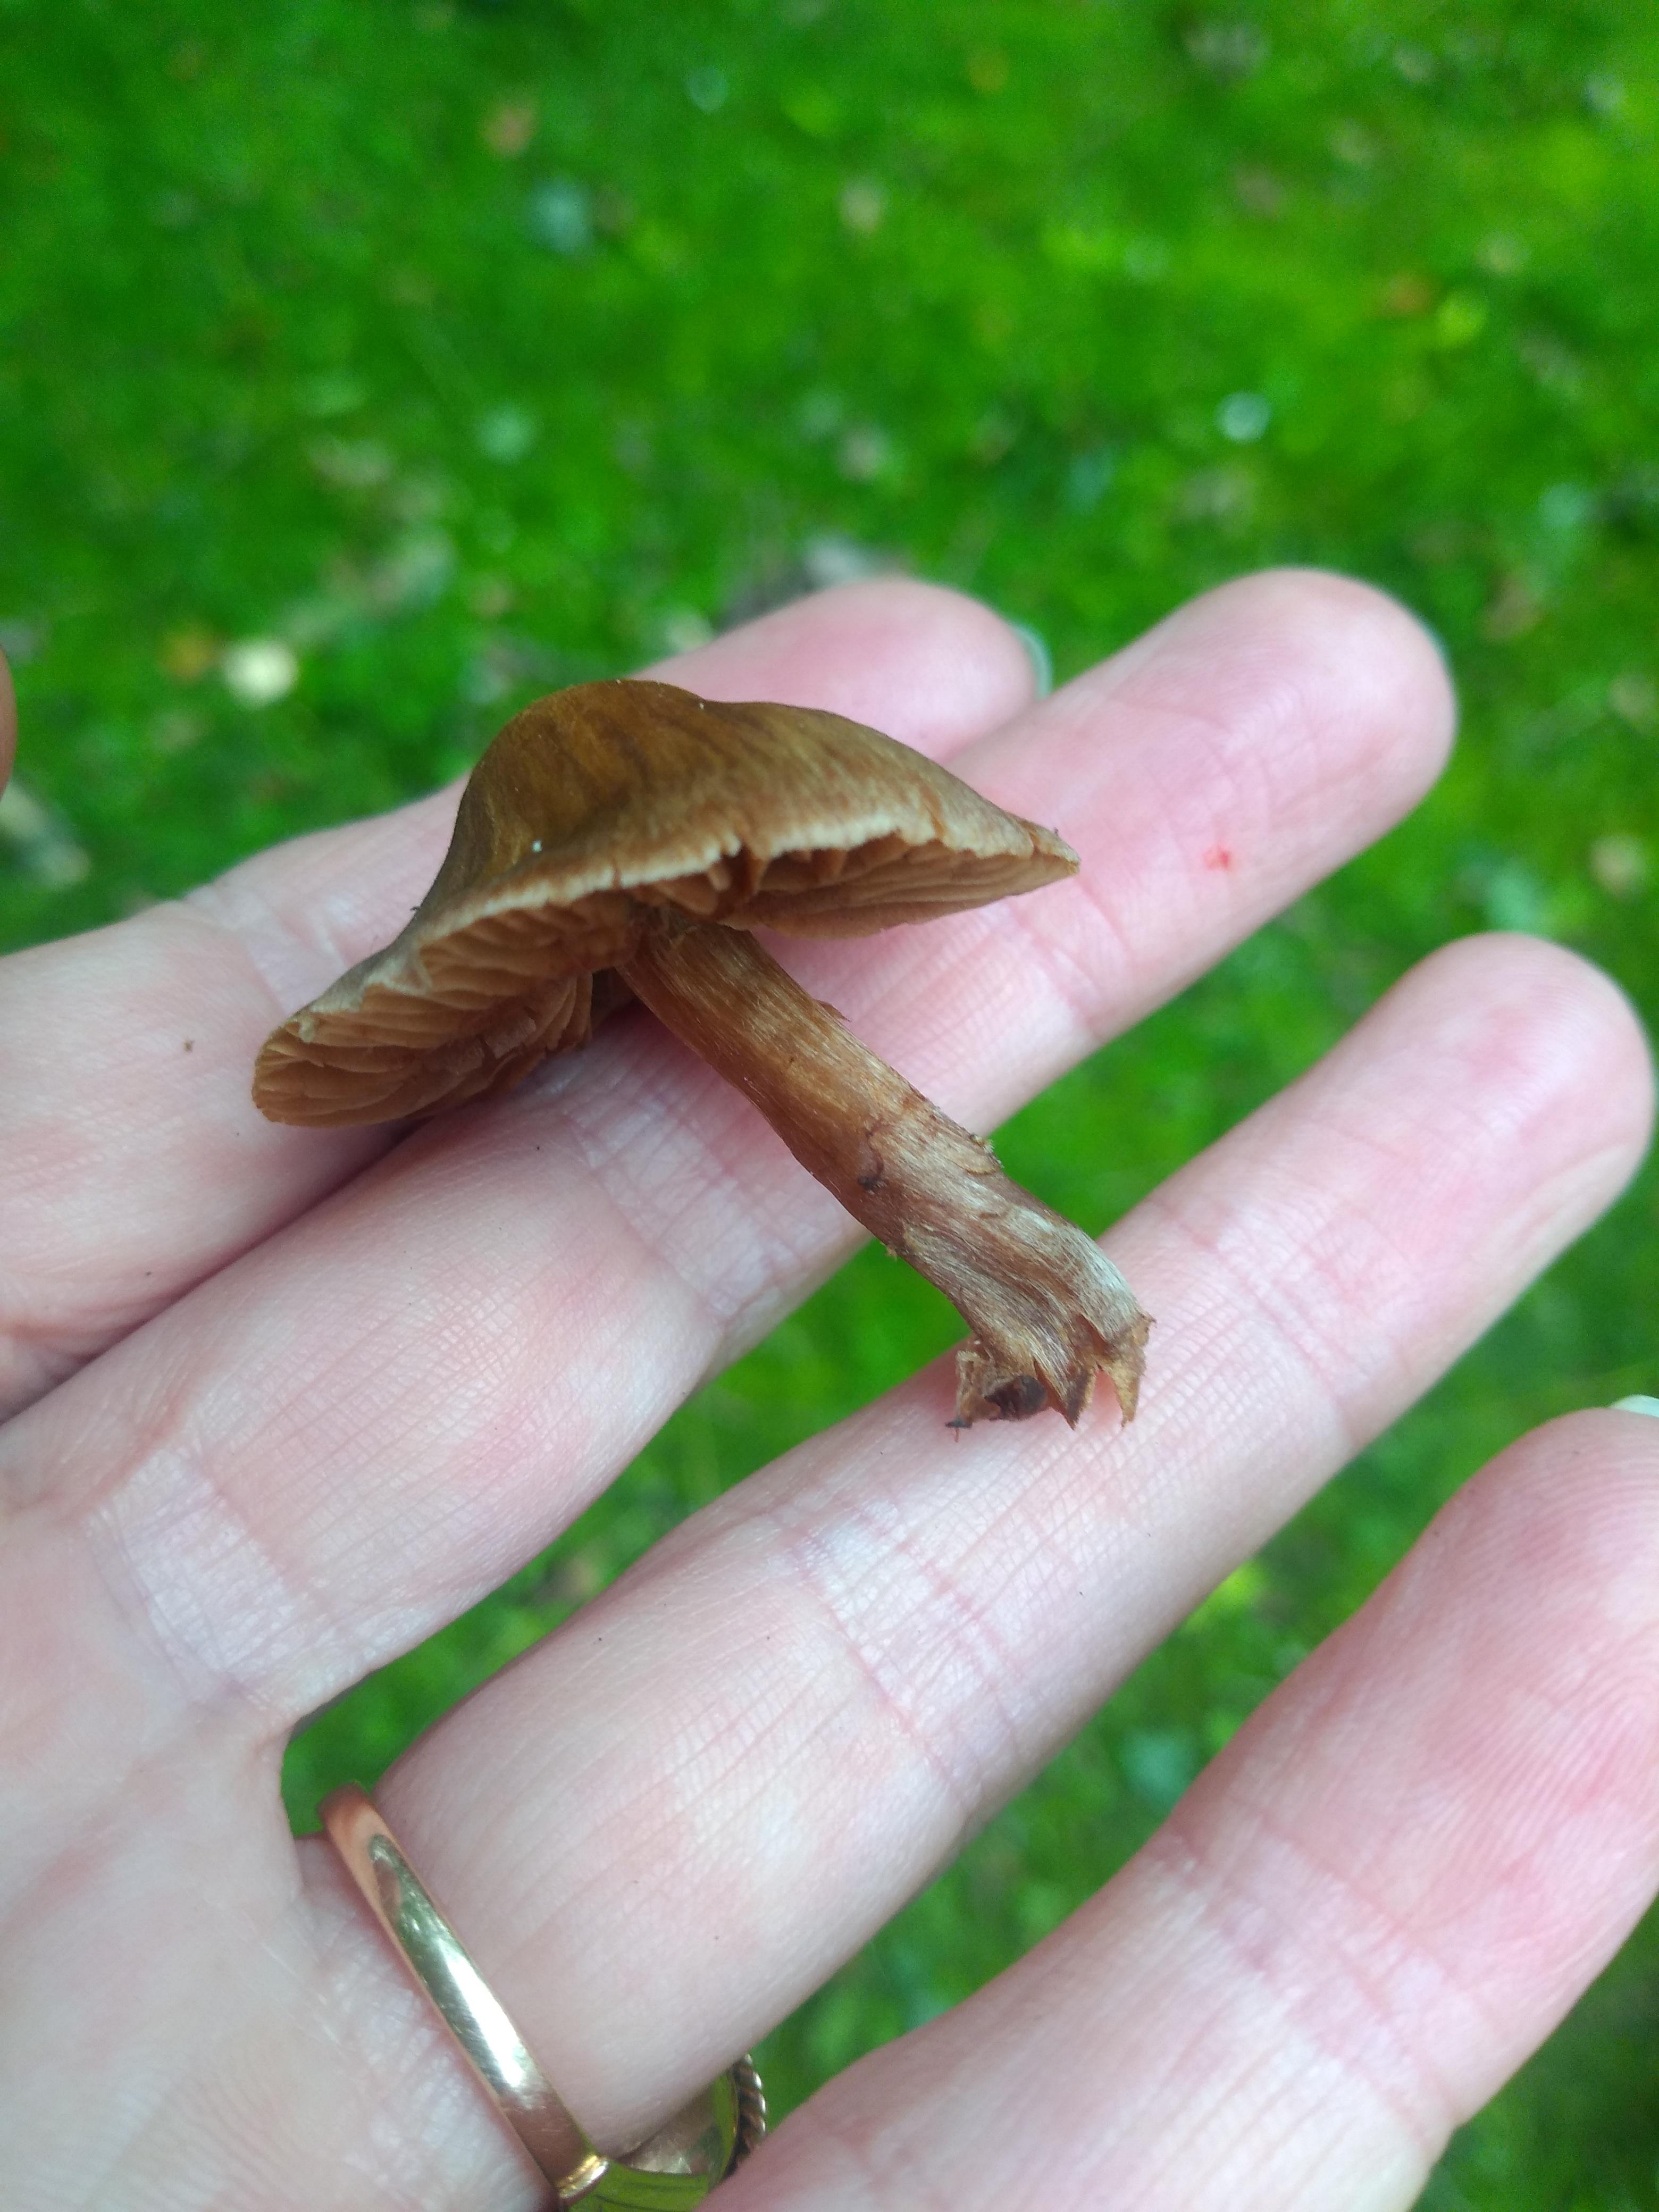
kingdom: Fungi
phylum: Basidiomycota
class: Agaricomycetes
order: Agaricales
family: Cortinariaceae
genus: Cortinarius
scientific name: Cortinarius
